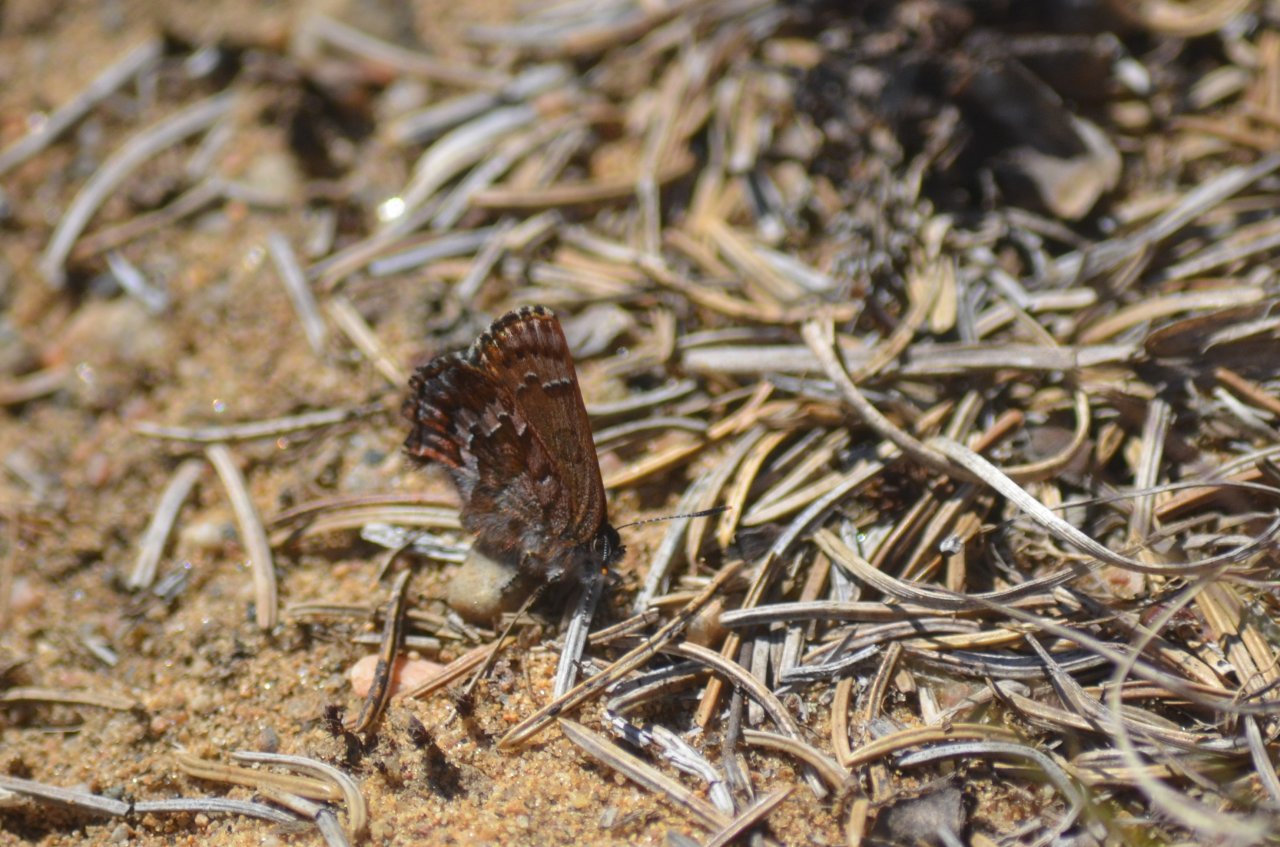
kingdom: Animalia
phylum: Arthropoda
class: Insecta
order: Lepidoptera
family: Lycaenidae
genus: Incisalia
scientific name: Incisalia niphon
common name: Eastern Pine Elfin
